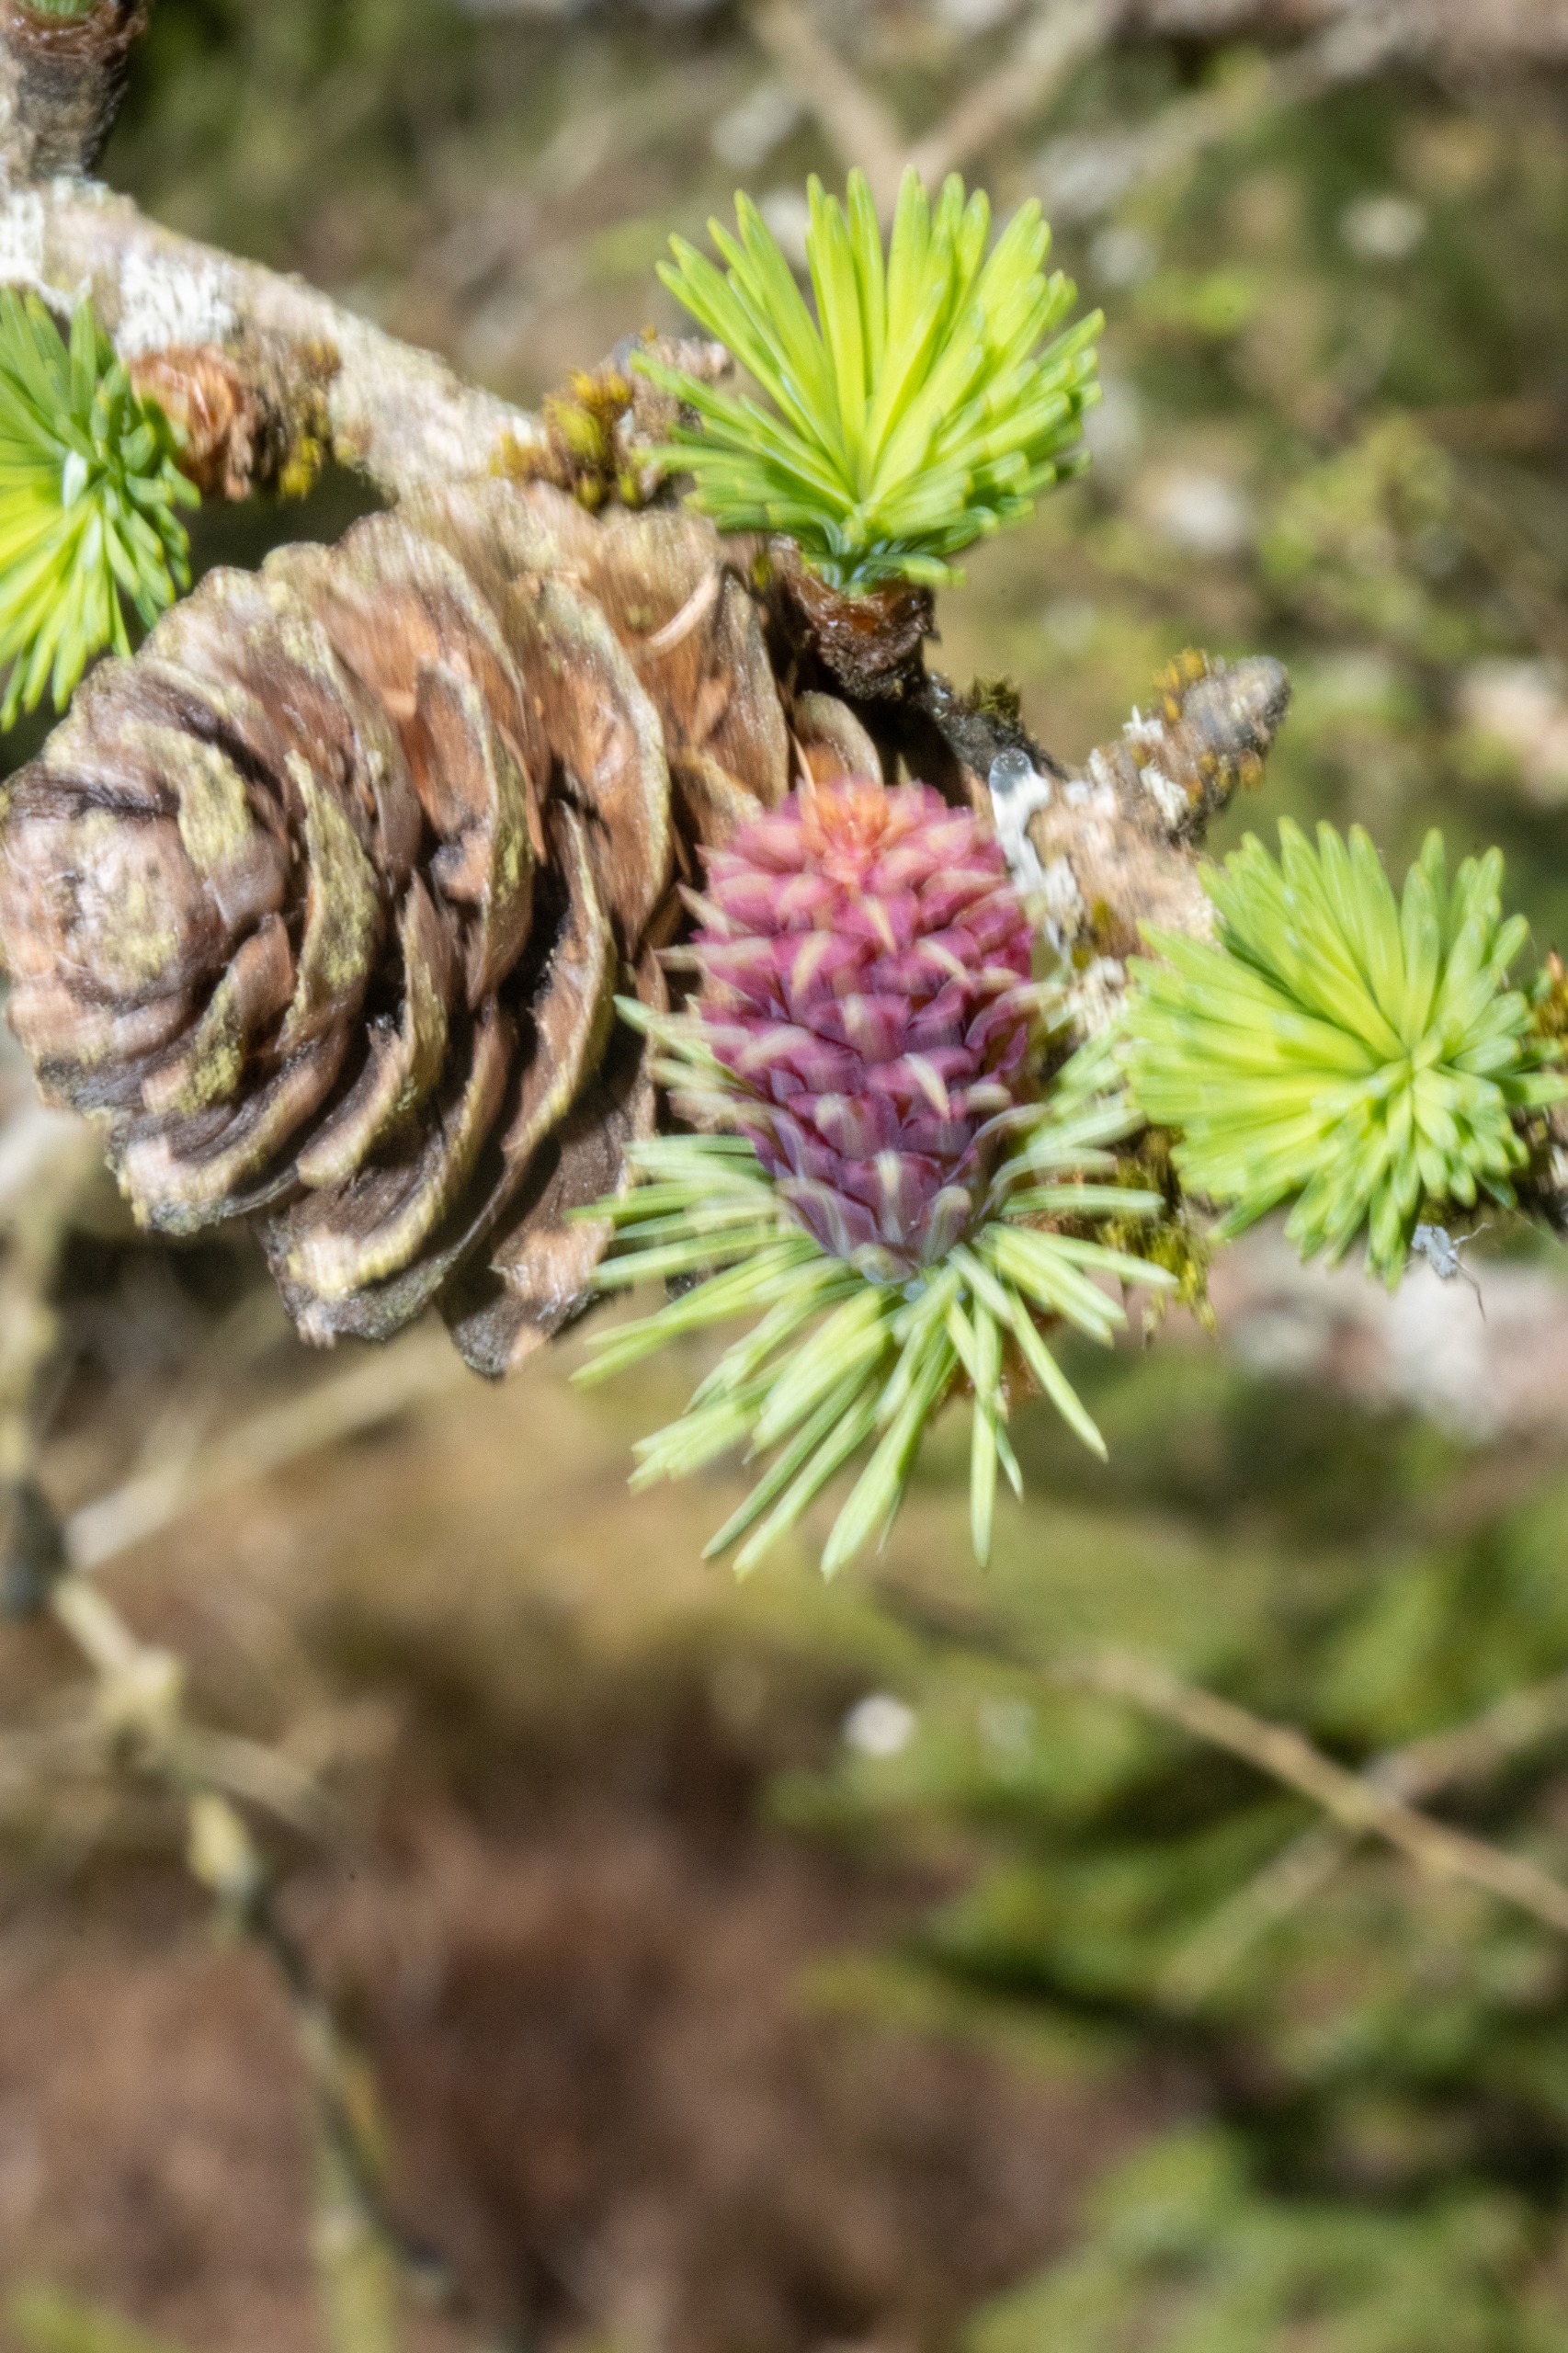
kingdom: Plantae
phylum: Tracheophyta
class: Pinopsida
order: Pinales
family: Pinaceae
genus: Larix
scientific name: Larix decidua
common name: Europæisk lærk
